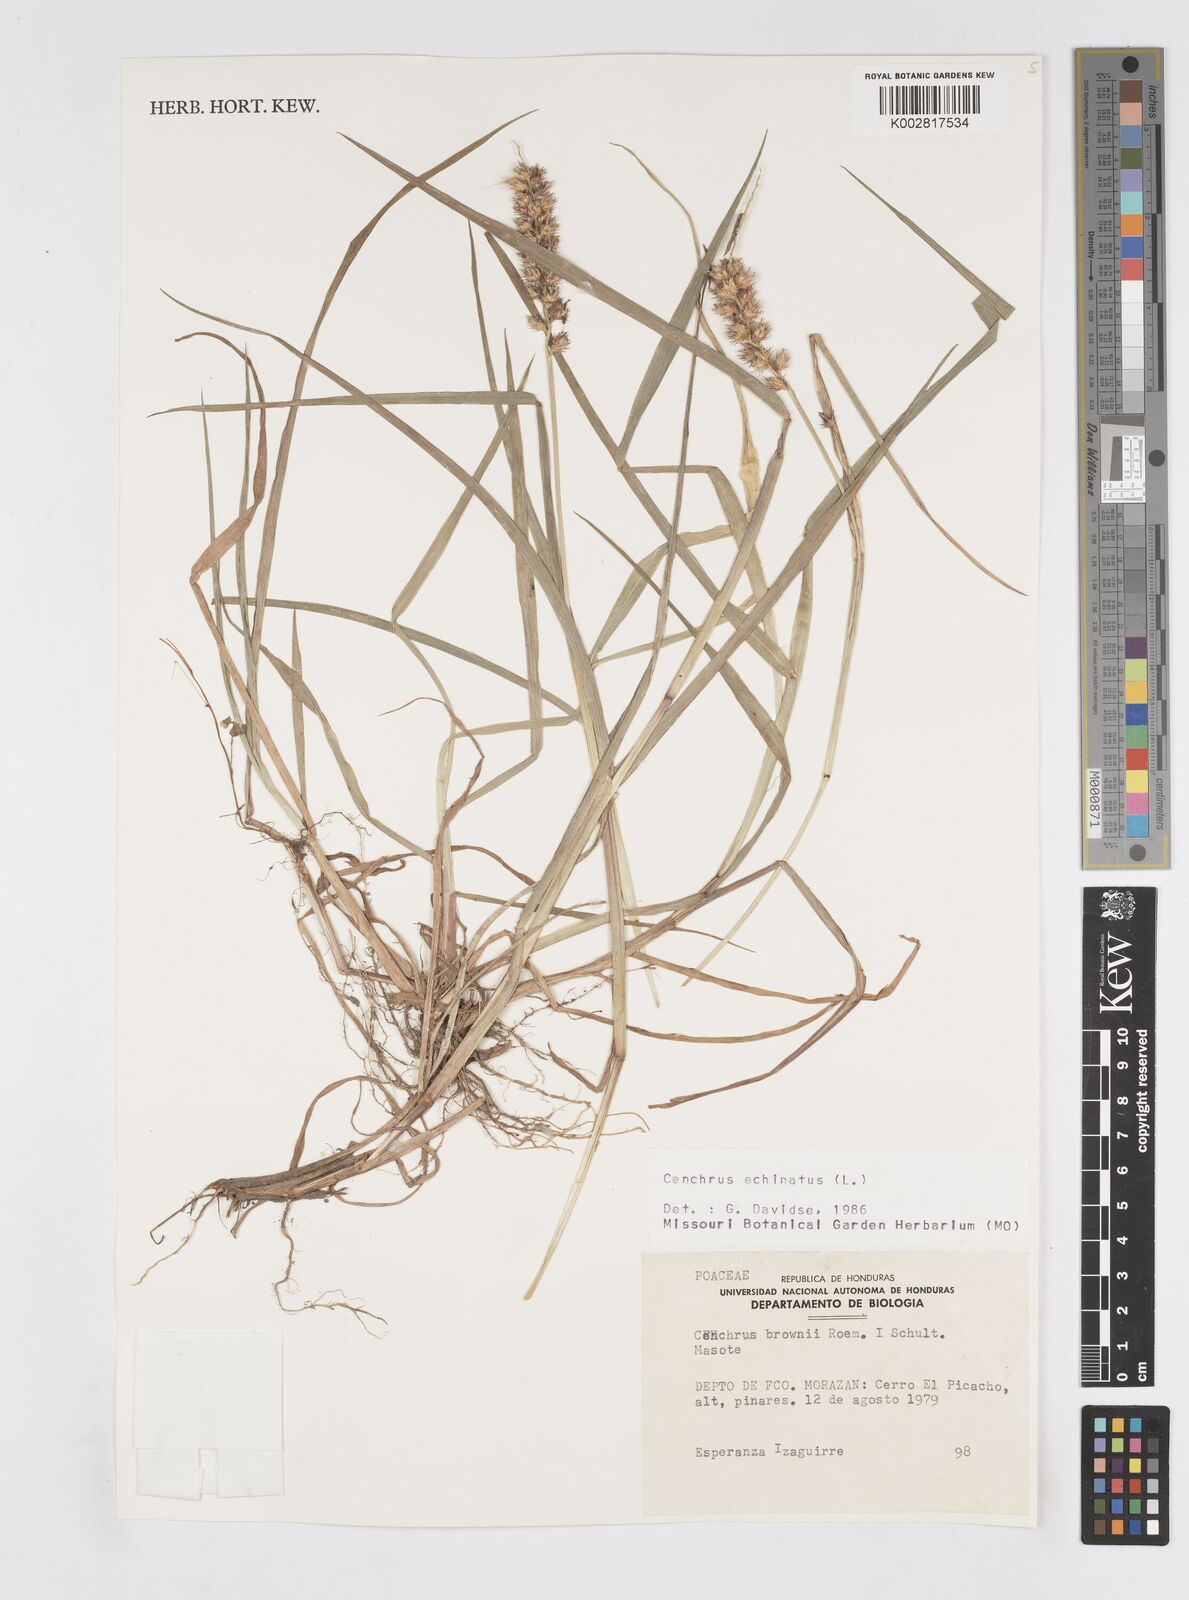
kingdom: Plantae
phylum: Tracheophyta
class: Liliopsida
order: Poales
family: Poaceae
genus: Cenchrus
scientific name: Cenchrus
